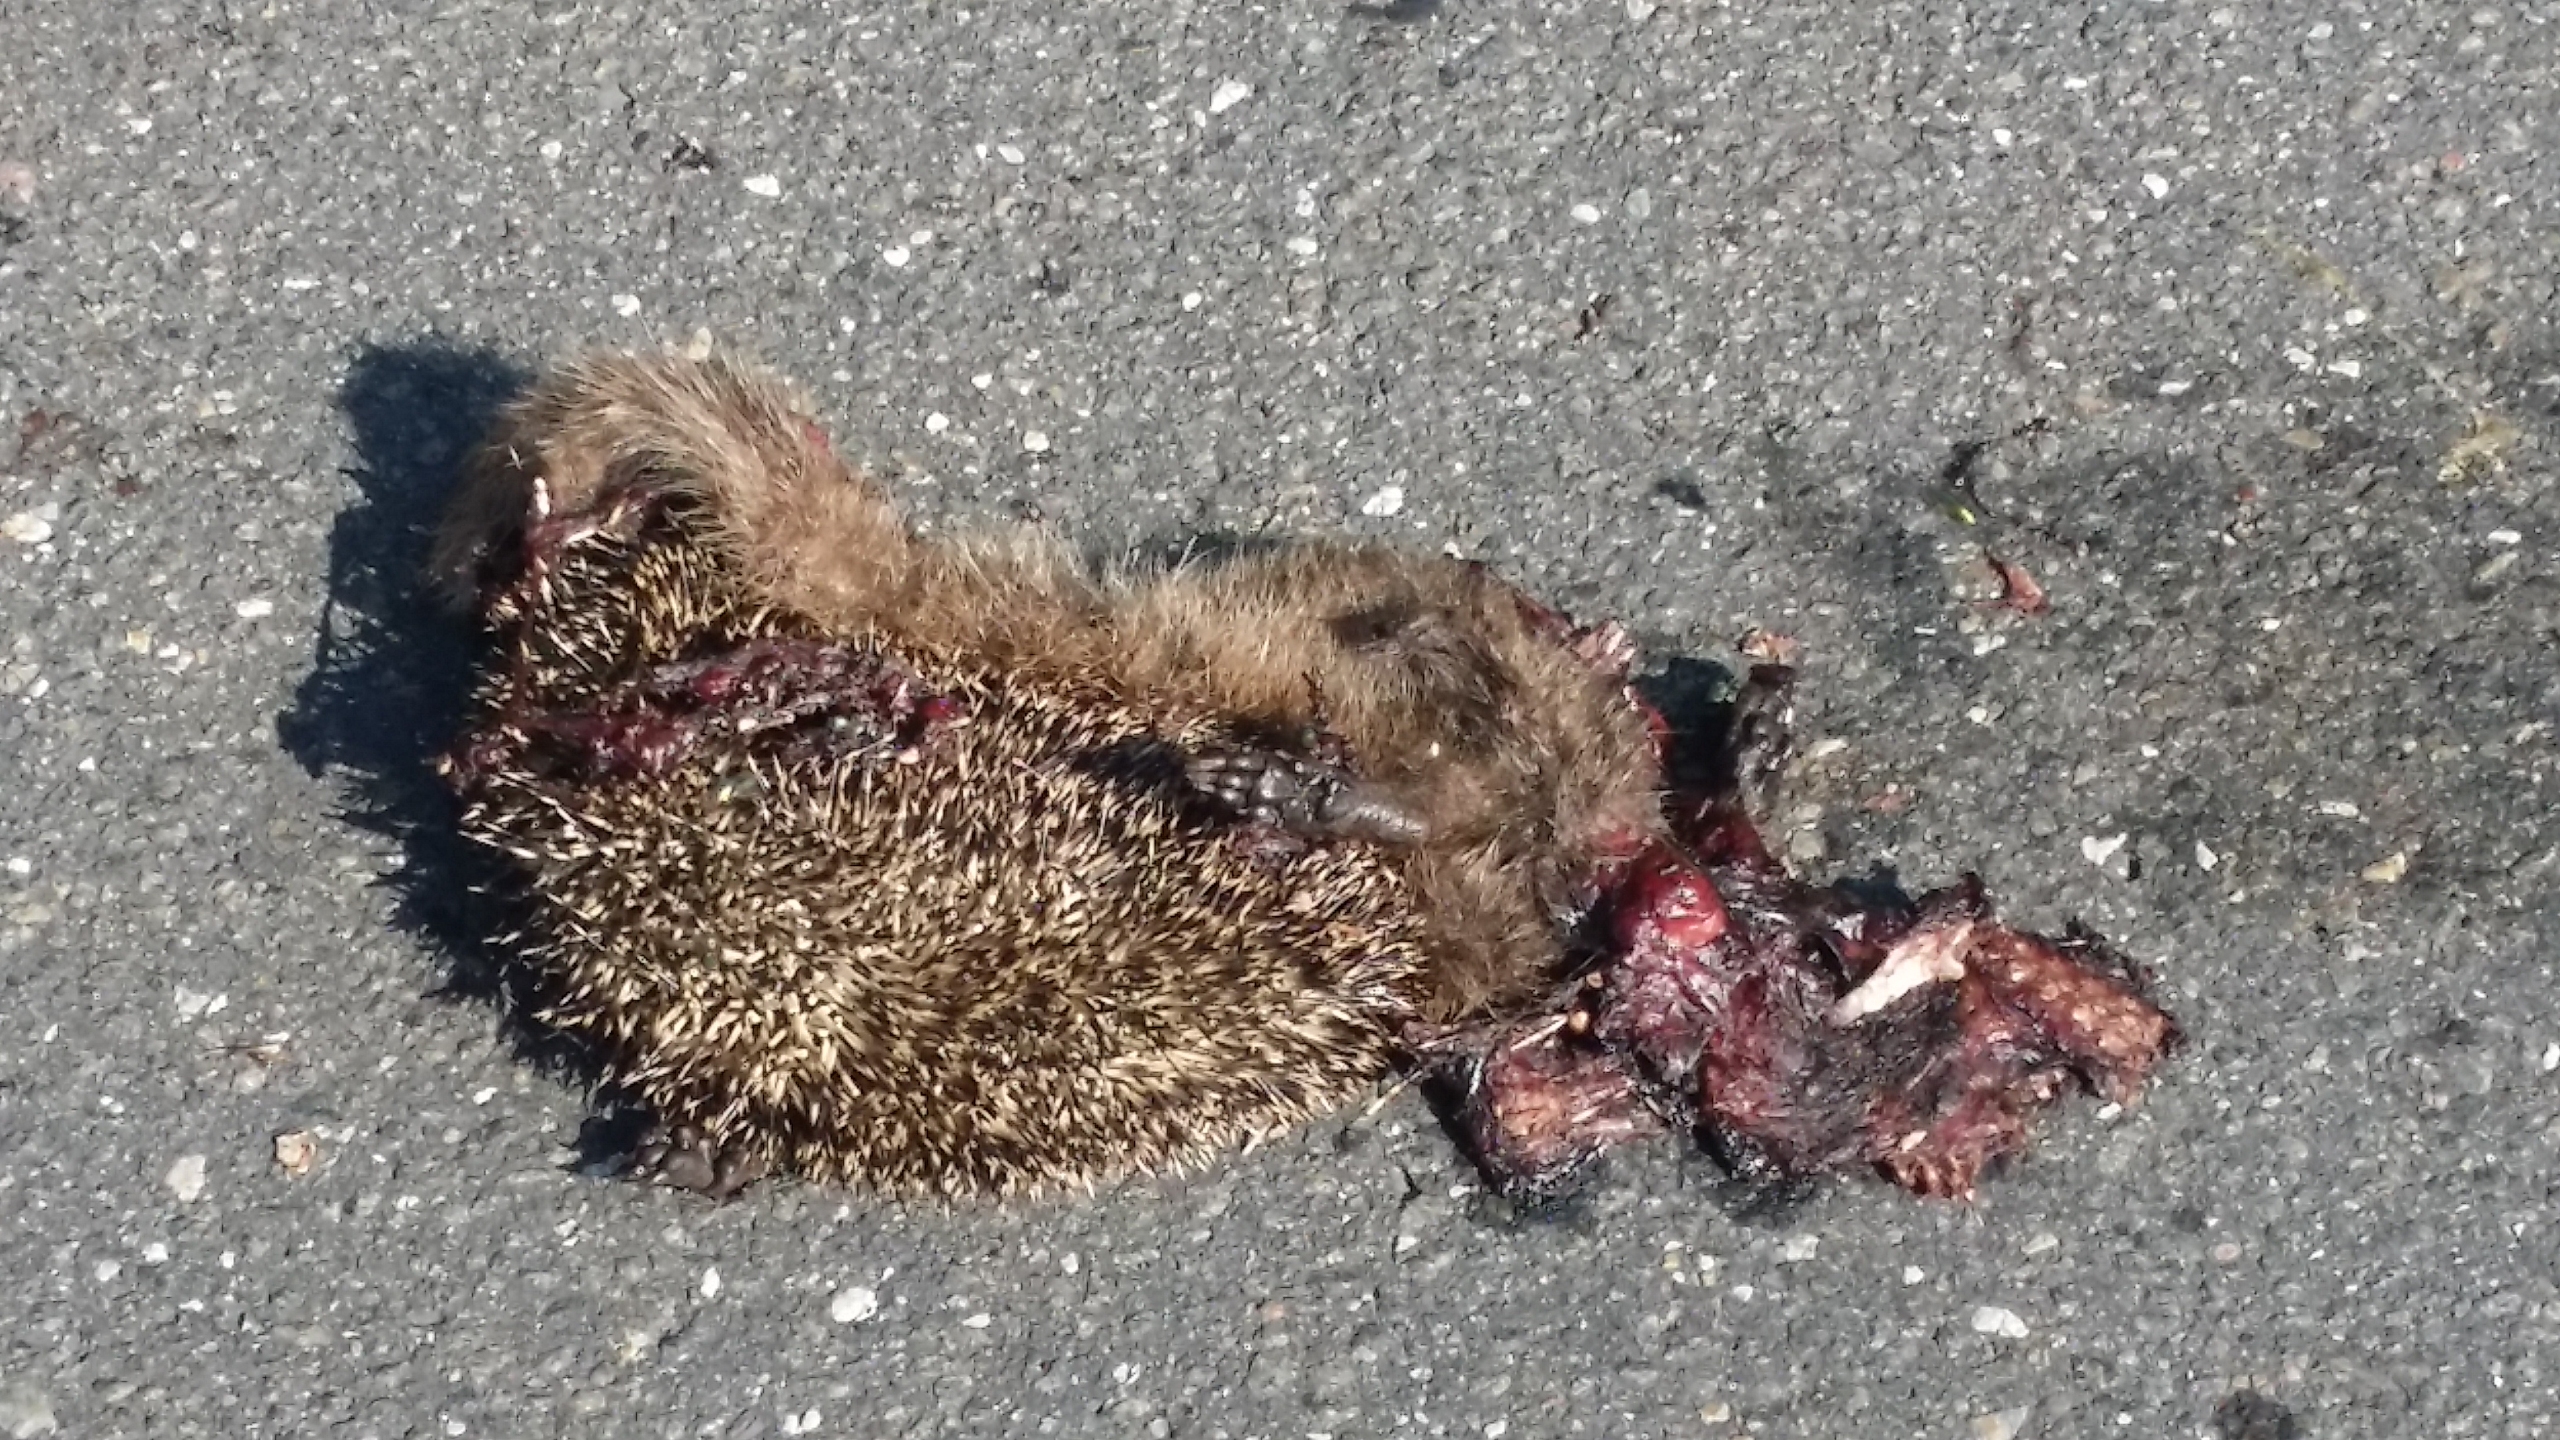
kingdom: Animalia
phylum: Chordata
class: Mammalia
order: Erinaceomorpha
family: Erinaceidae
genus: Erinaceus
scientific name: Erinaceus europaeus
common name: Pindsvin
